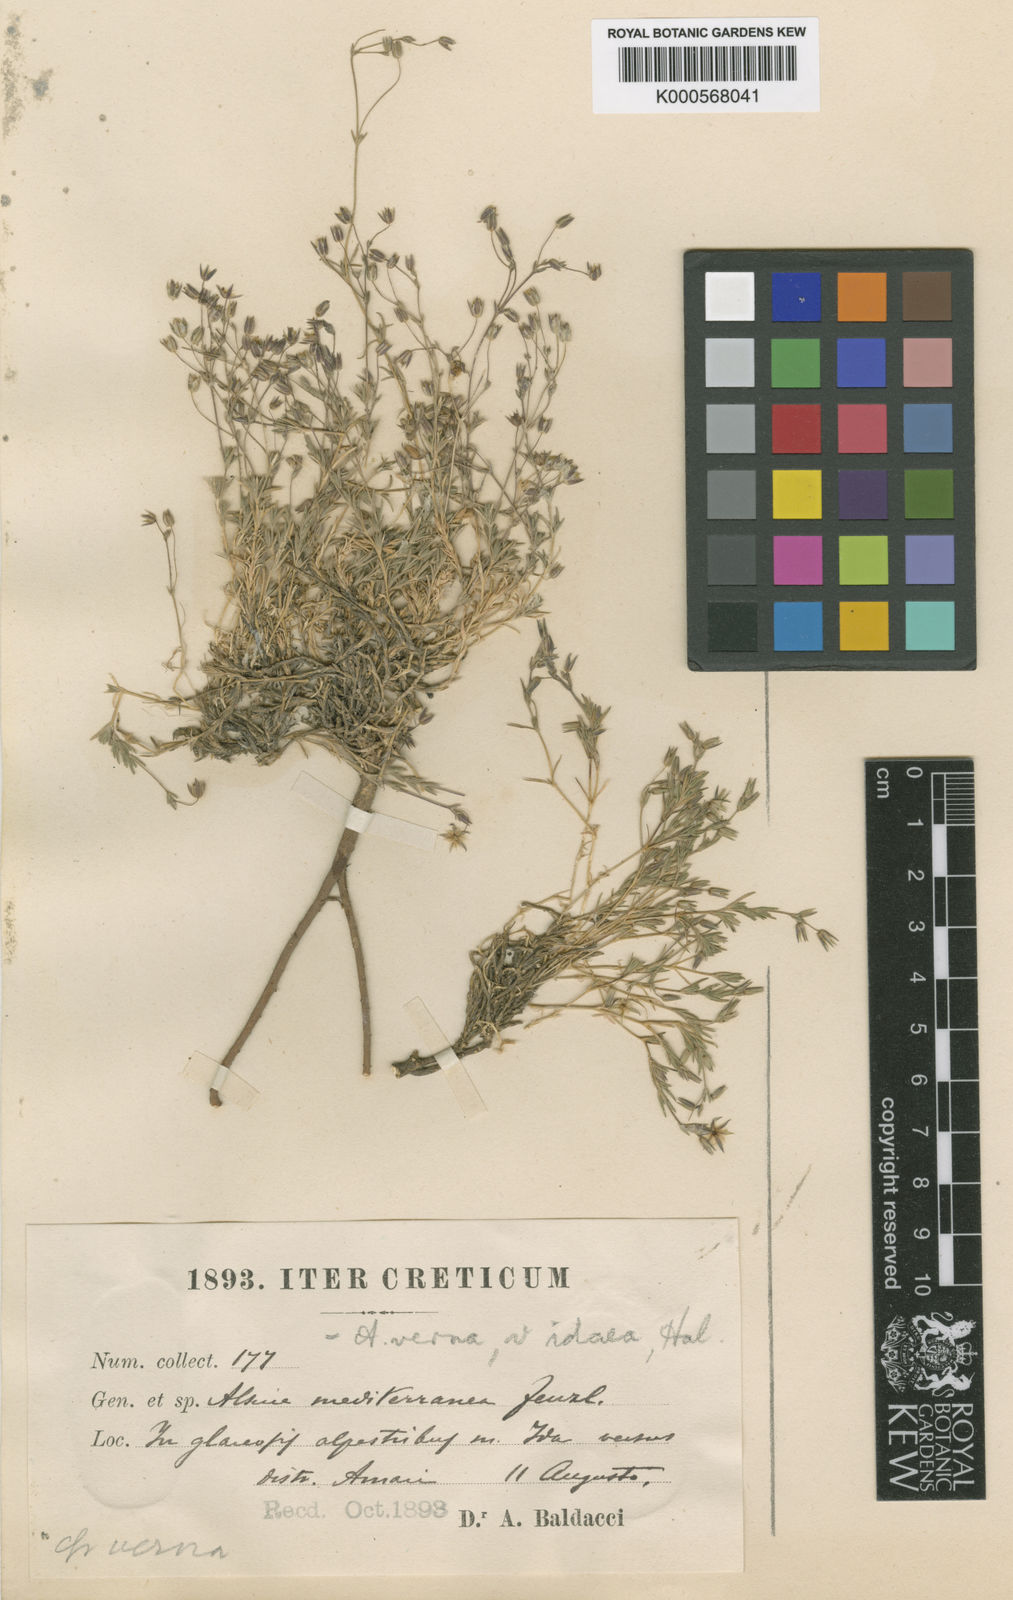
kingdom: Plantae
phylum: Tracheophyta
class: Magnoliopsida
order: Caryophyllales
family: Caryophyllaceae
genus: Sabulina
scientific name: Sabulina verna
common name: Spring sandwort
